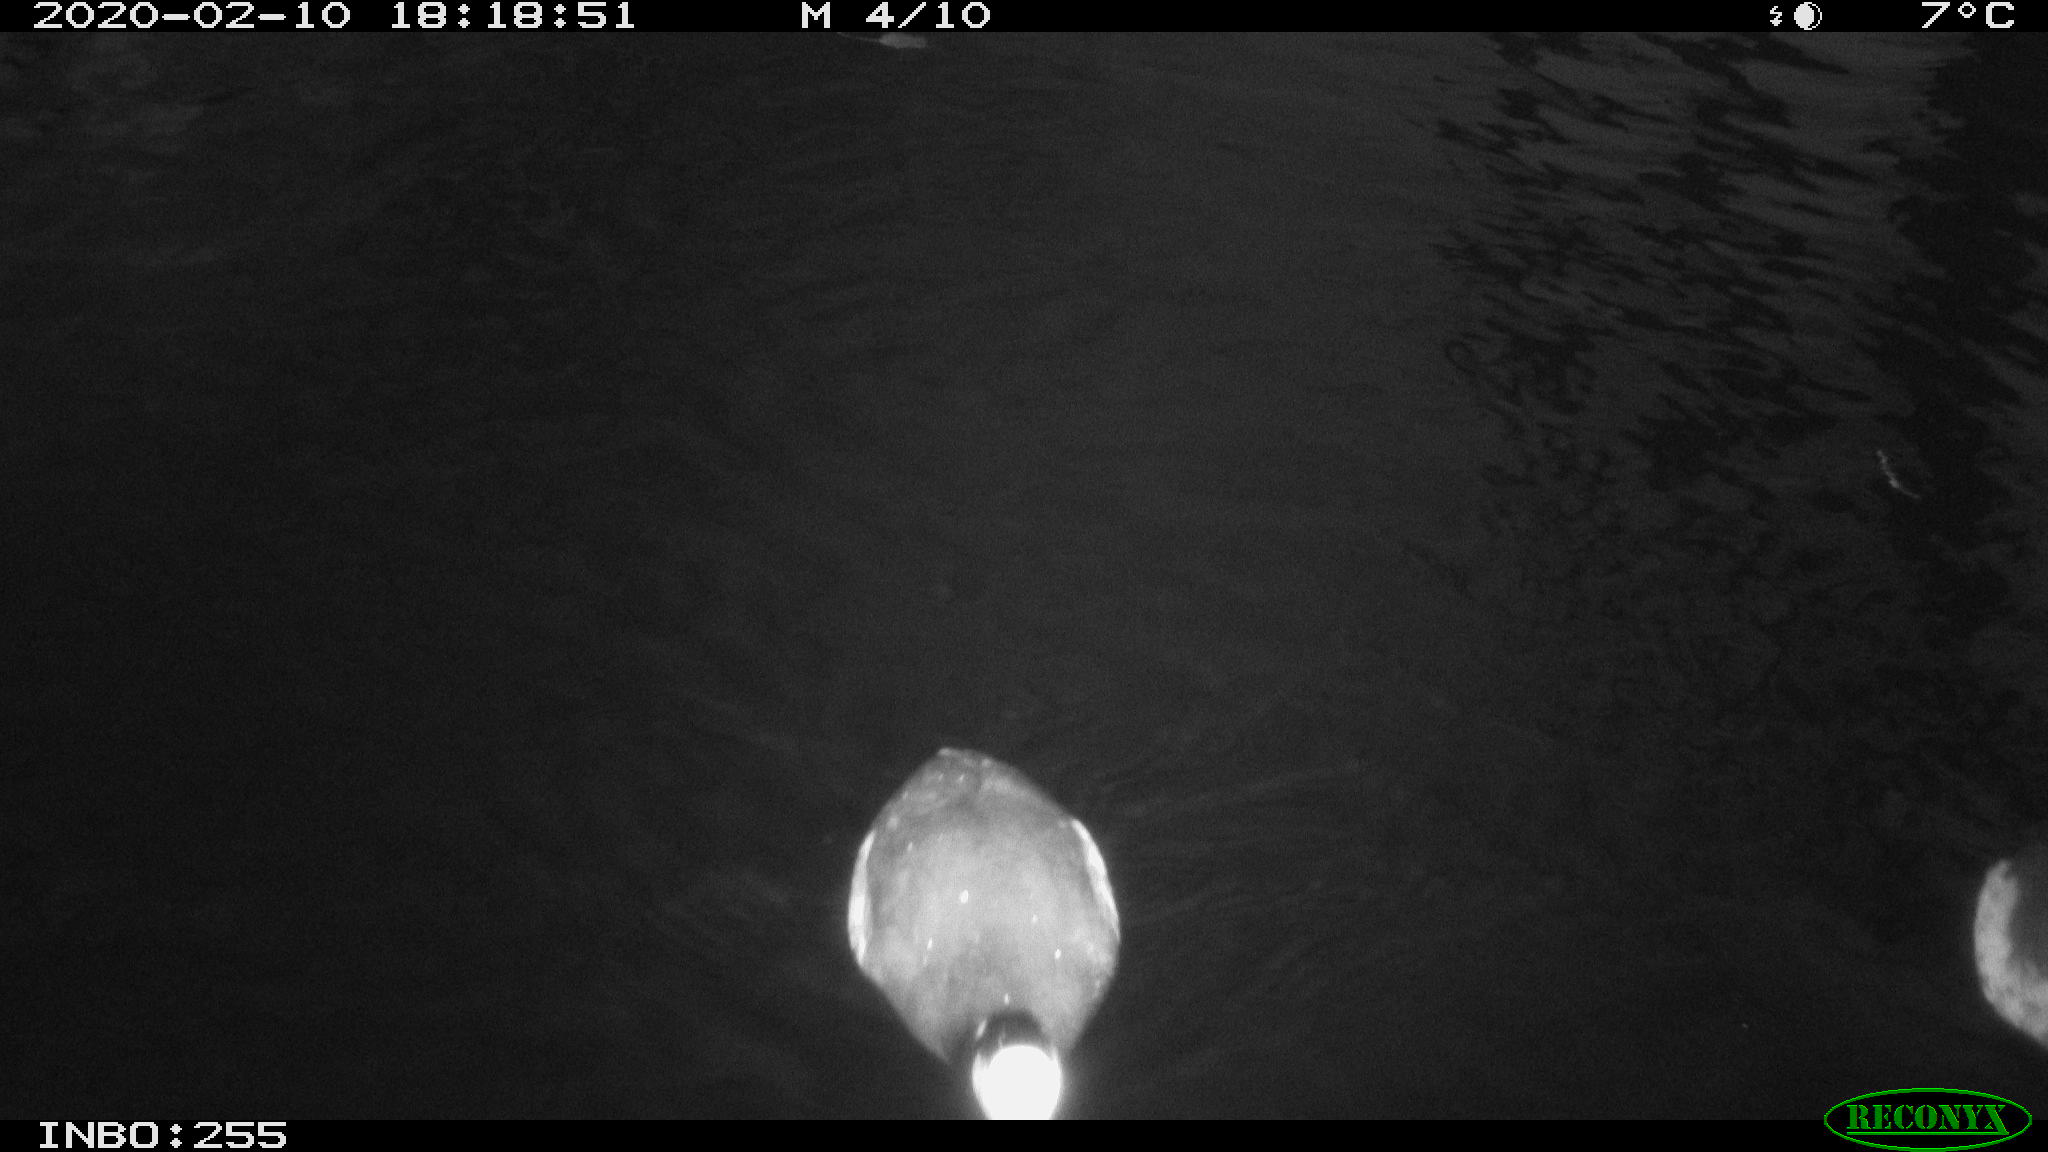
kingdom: Animalia
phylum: Chordata
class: Aves
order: Gruiformes
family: Rallidae
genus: Fulica
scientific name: Fulica atra
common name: Eurasian coot
